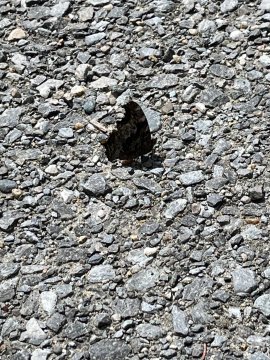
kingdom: Animalia
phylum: Arthropoda
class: Insecta
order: Lepidoptera
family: Nymphalidae
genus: Polygonia
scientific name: Polygonia comma
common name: Eastern Comma
